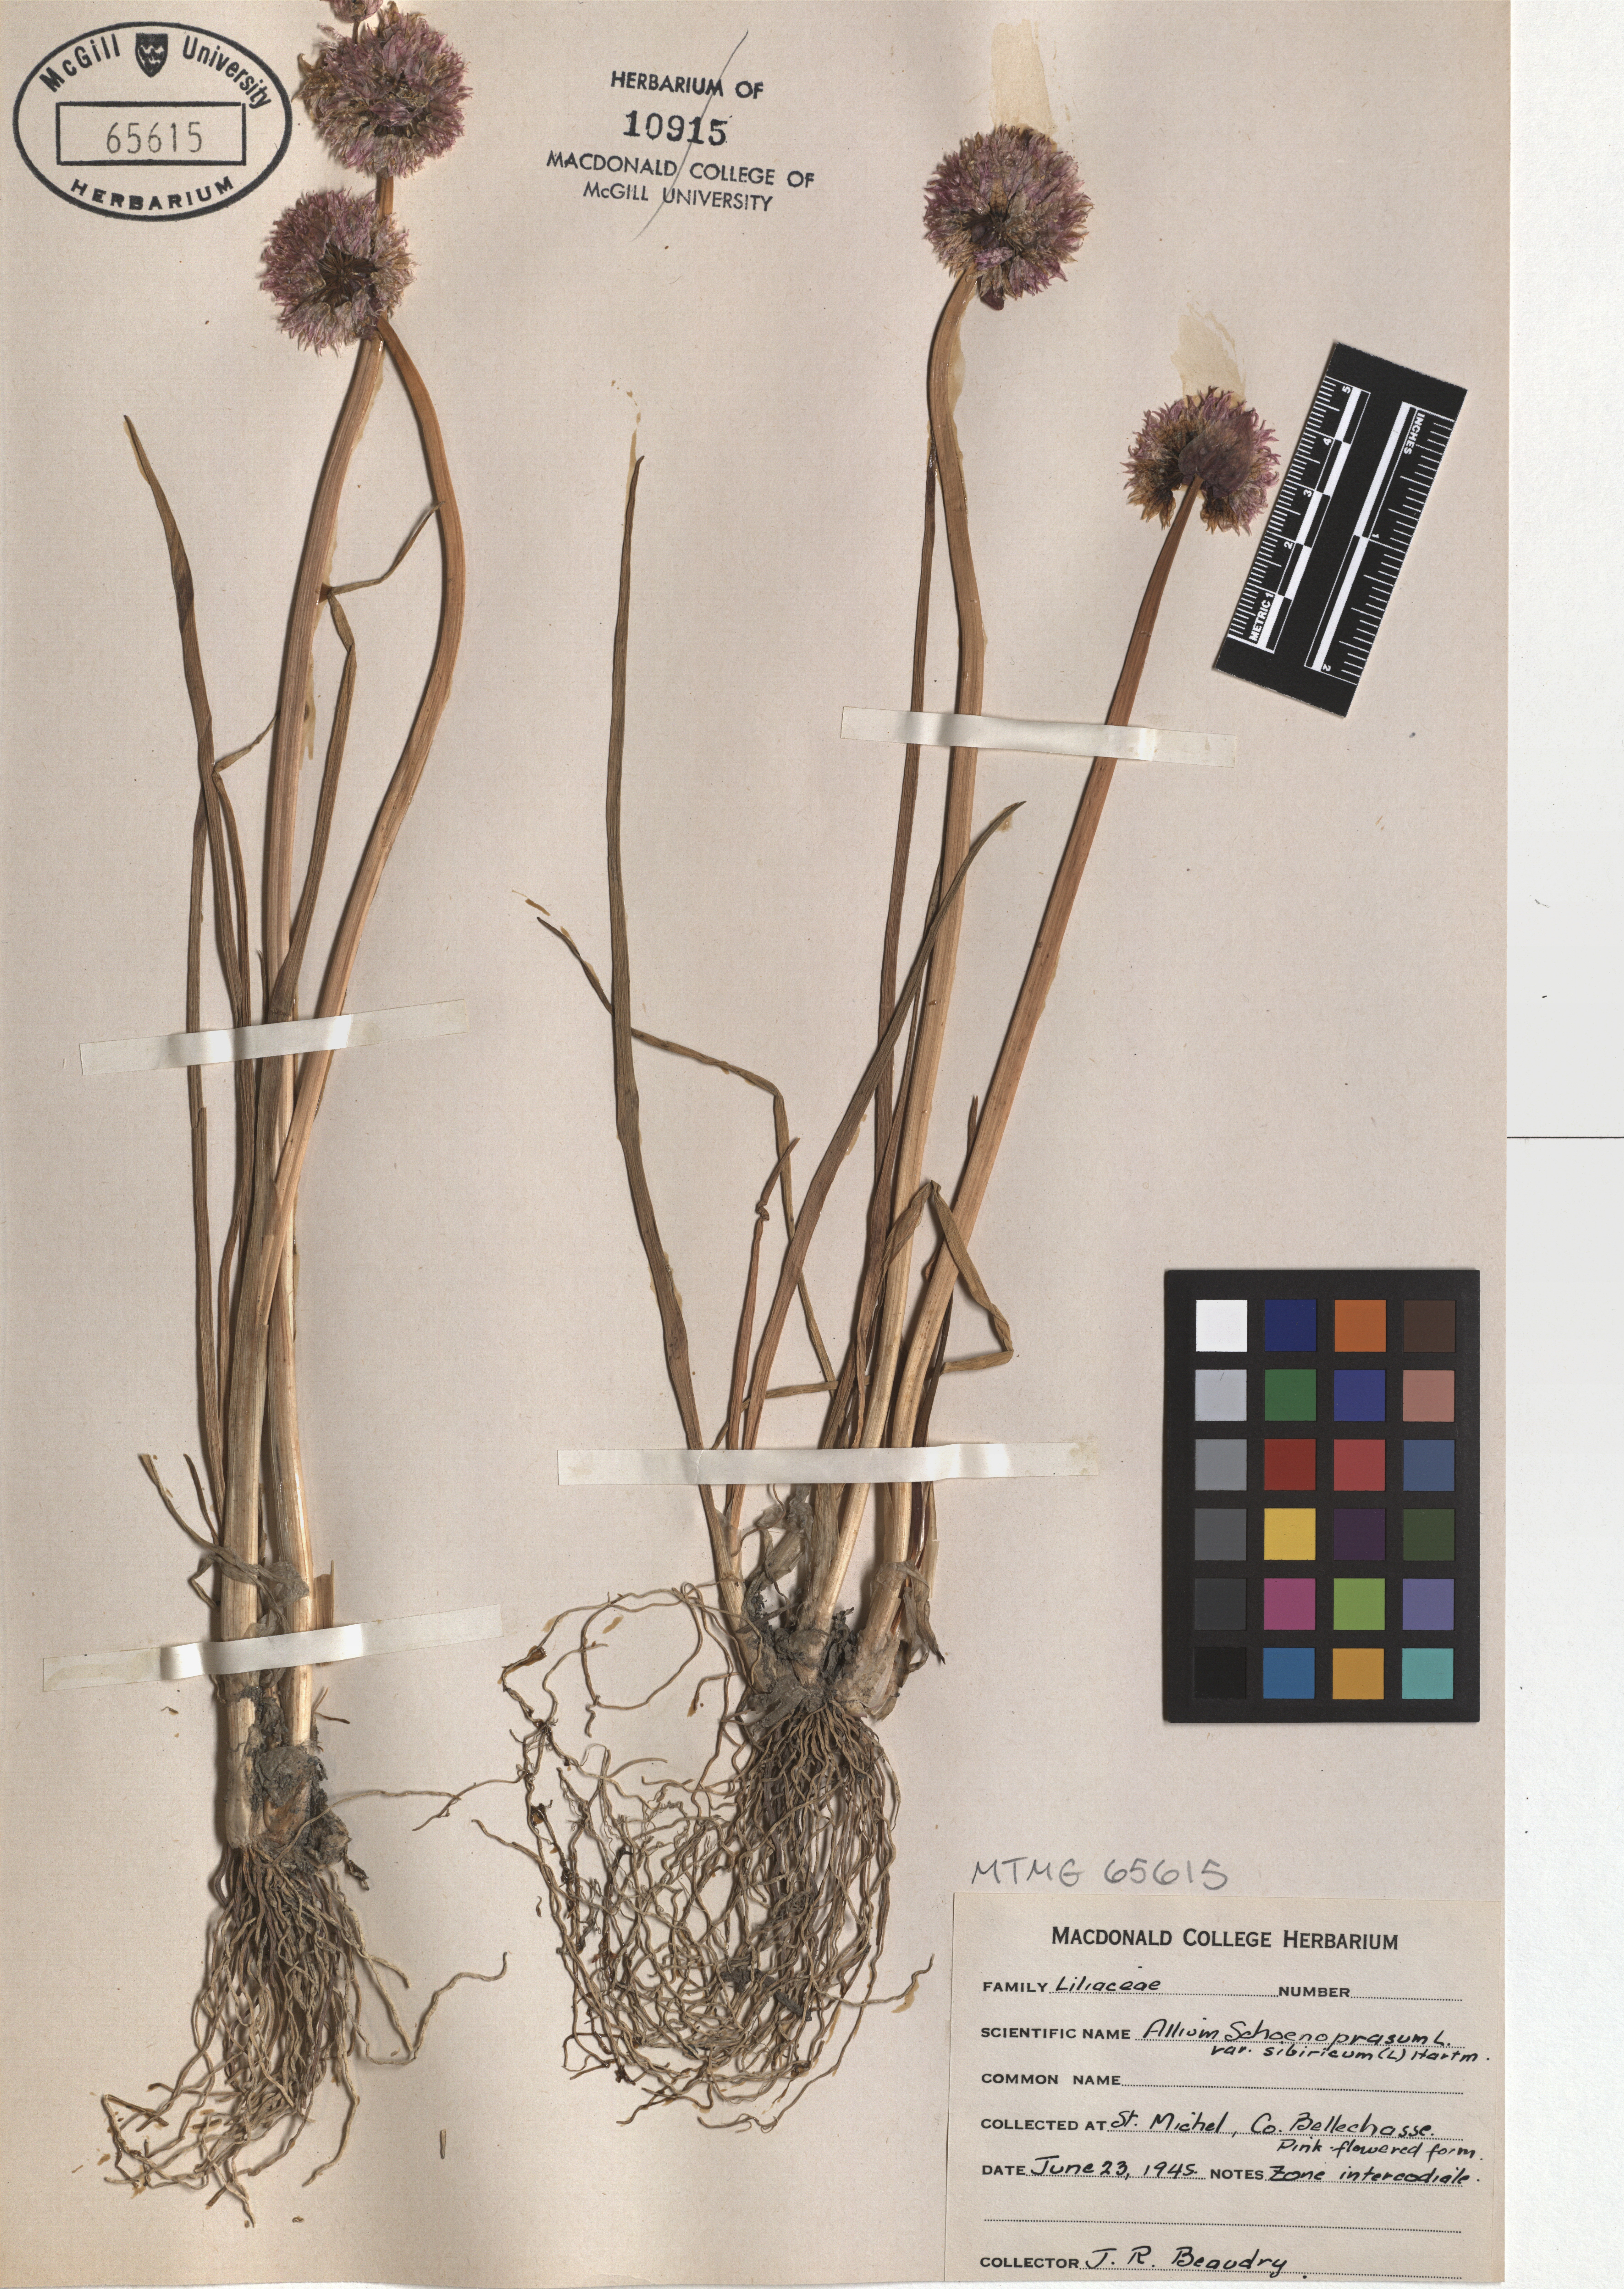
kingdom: Plantae
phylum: Tracheophyta
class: Liliopsida
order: Asparagales
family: Amaryllidaceae
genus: Allium
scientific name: Allium schoenoprasum
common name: Chives
